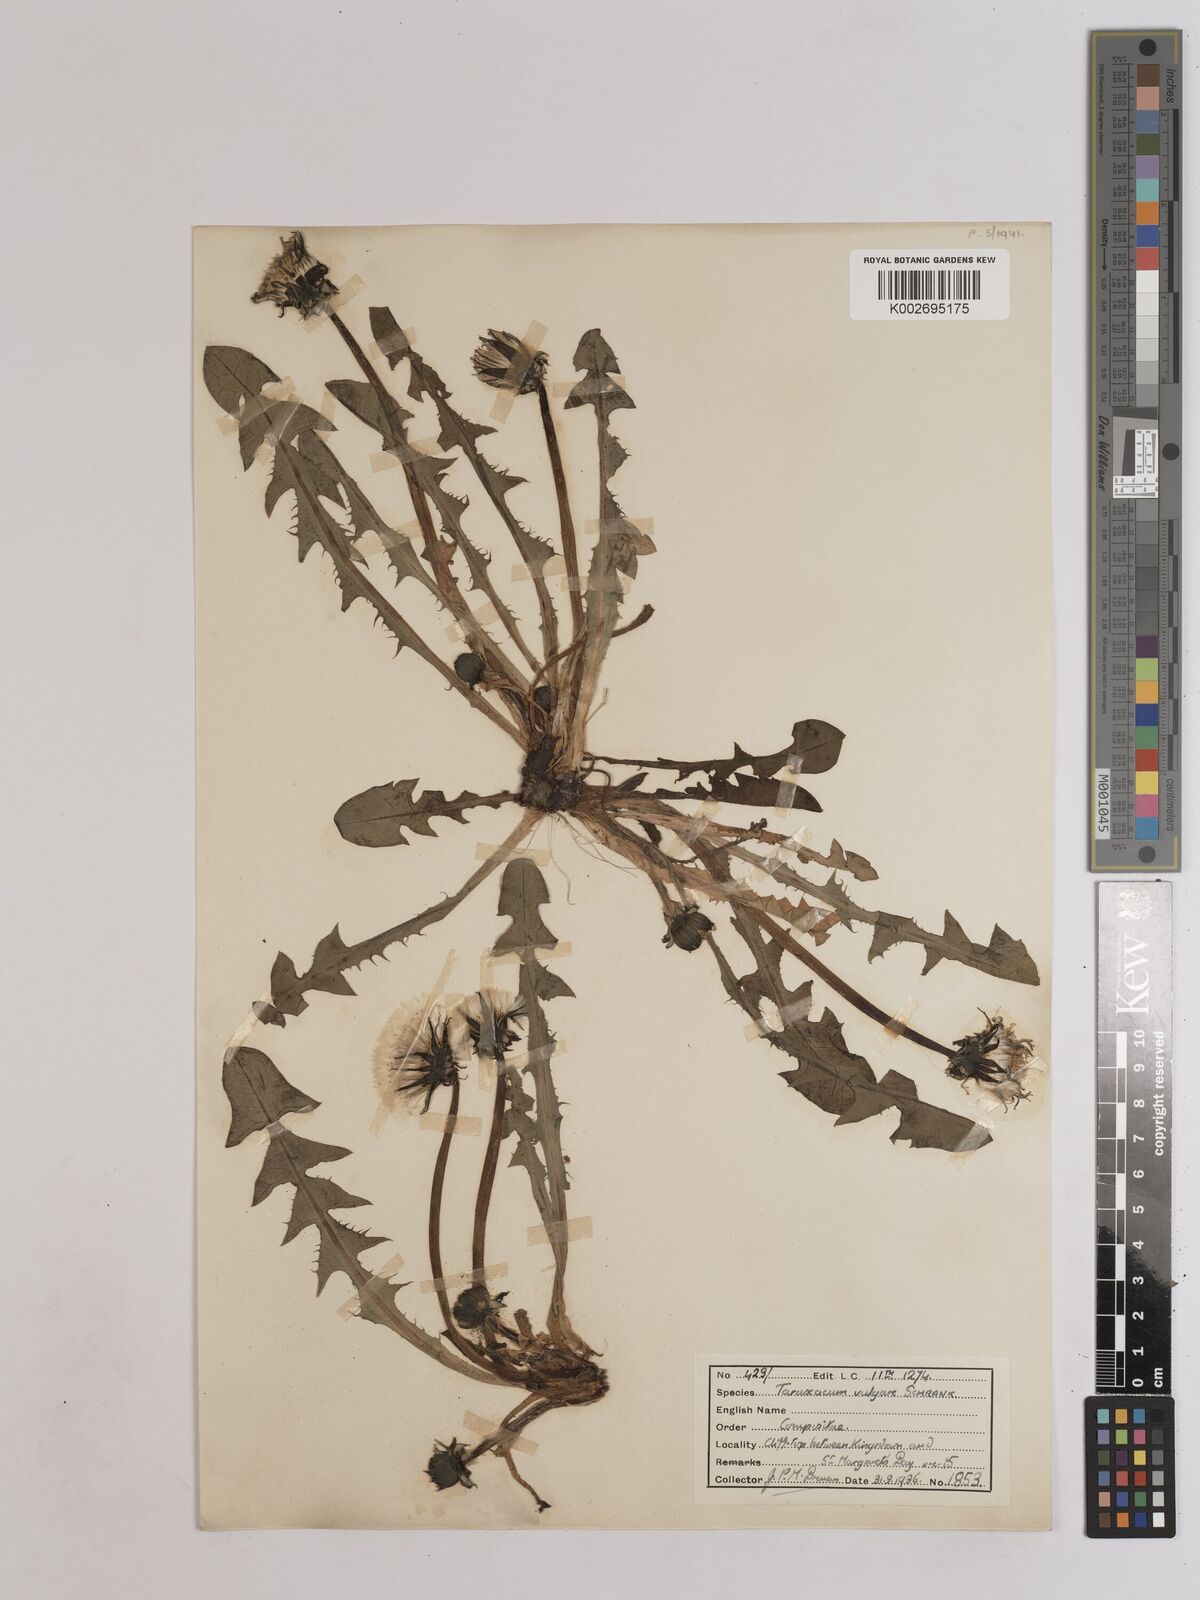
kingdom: Plantae
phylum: Tracheophyta
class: Magnoliopsida
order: Asterales
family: Asteraceae
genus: Taraxacum
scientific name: Taraxacum officinale
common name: Common dandelion
